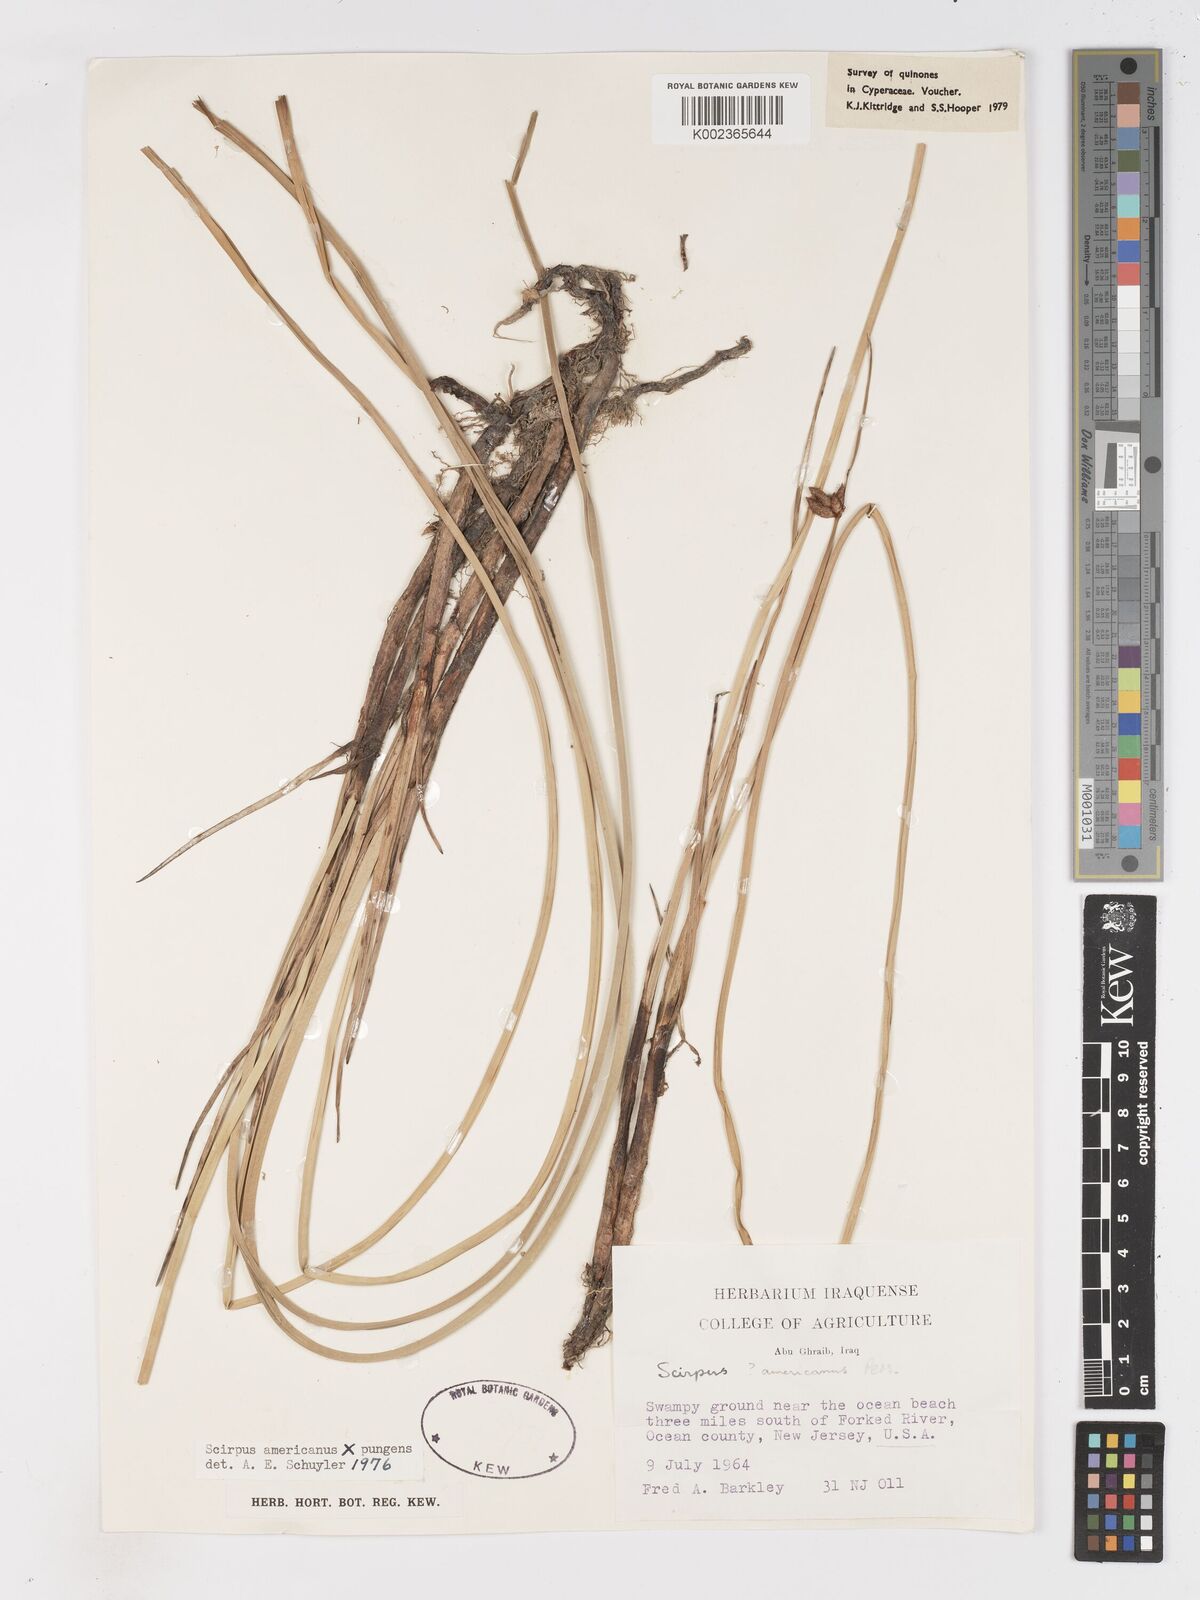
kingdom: Plantae
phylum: Tracheophyta
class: Liliopsida
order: Poales
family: Cyperaceae
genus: Schoenoplectus
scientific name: Schoenoplectus americanus
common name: American three-square bulrush
